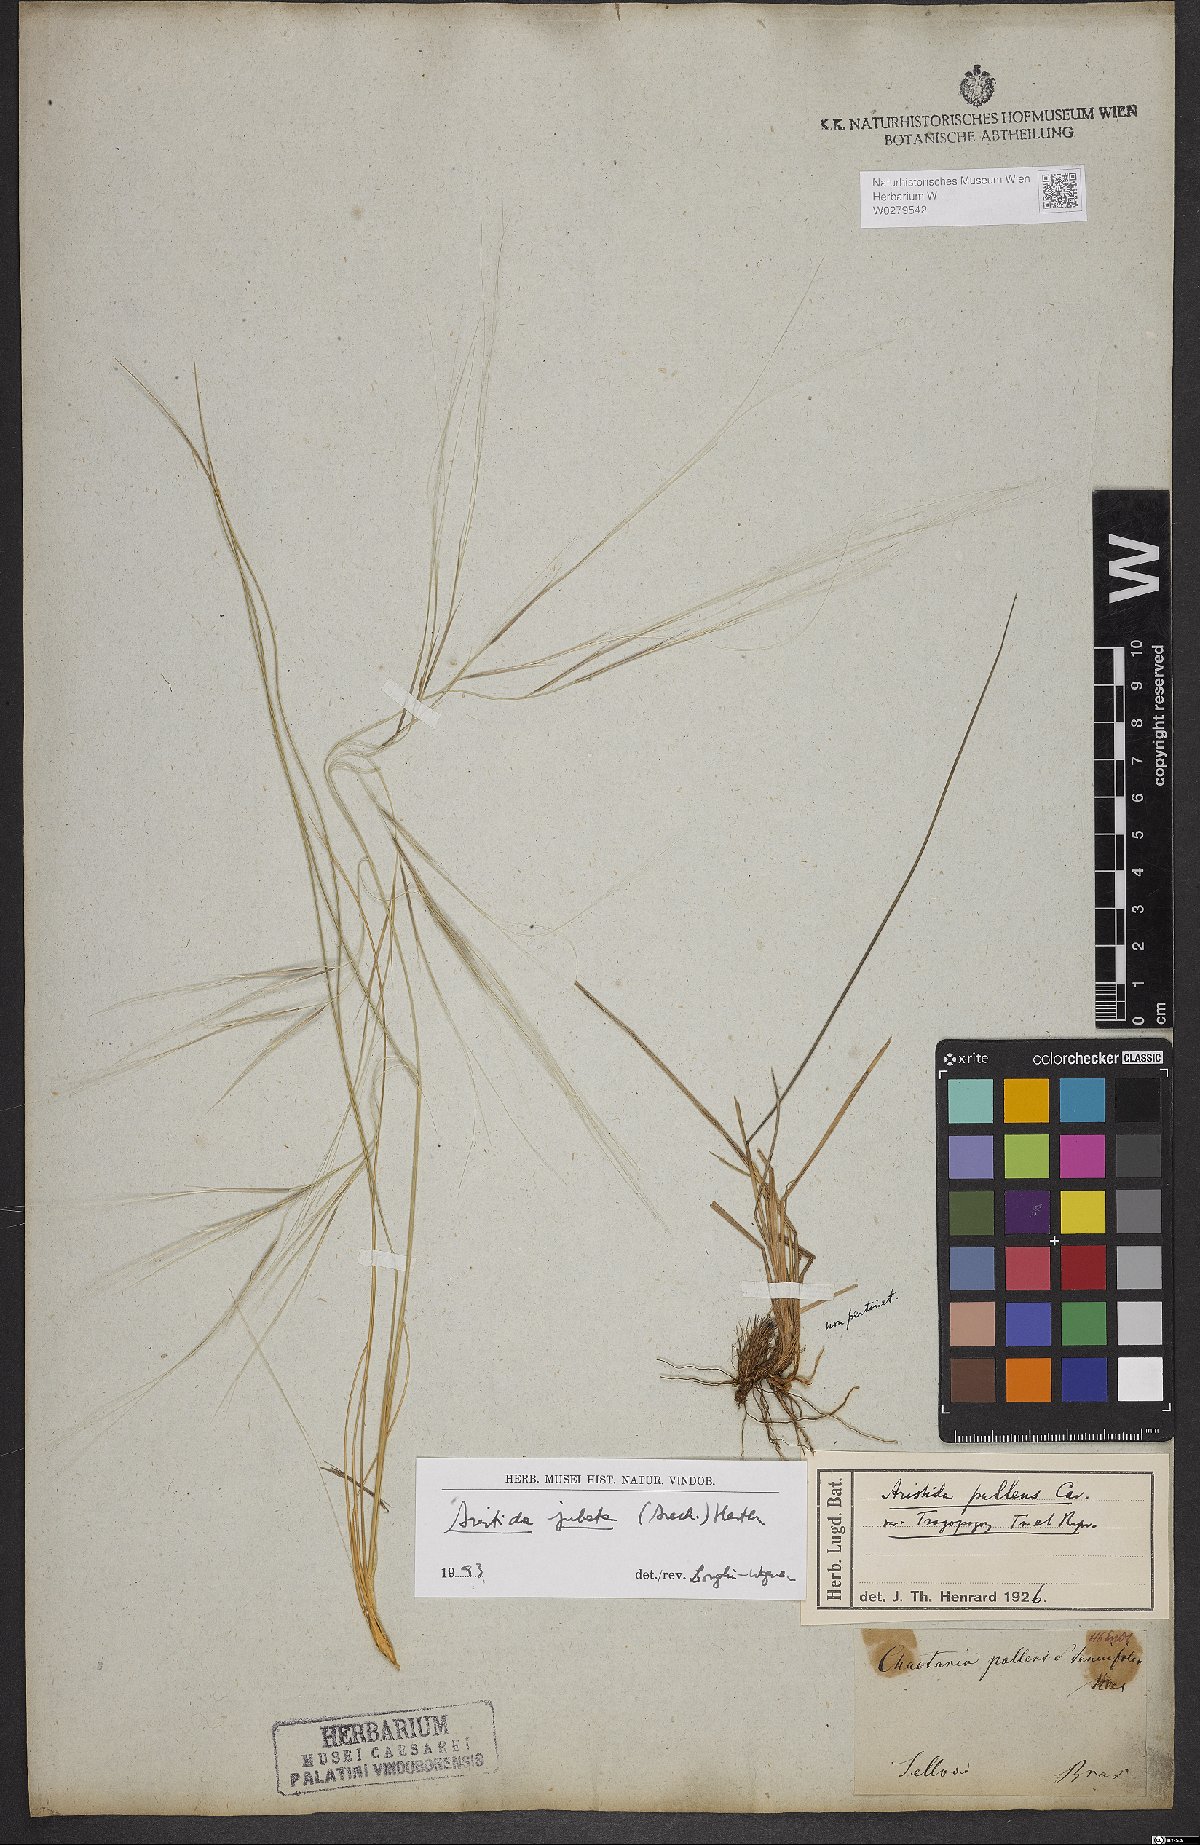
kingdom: Plantae
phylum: Tracheophyta
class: Liliopsida
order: Poales
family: Poaceae
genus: Aristida
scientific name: Aristida jubata
